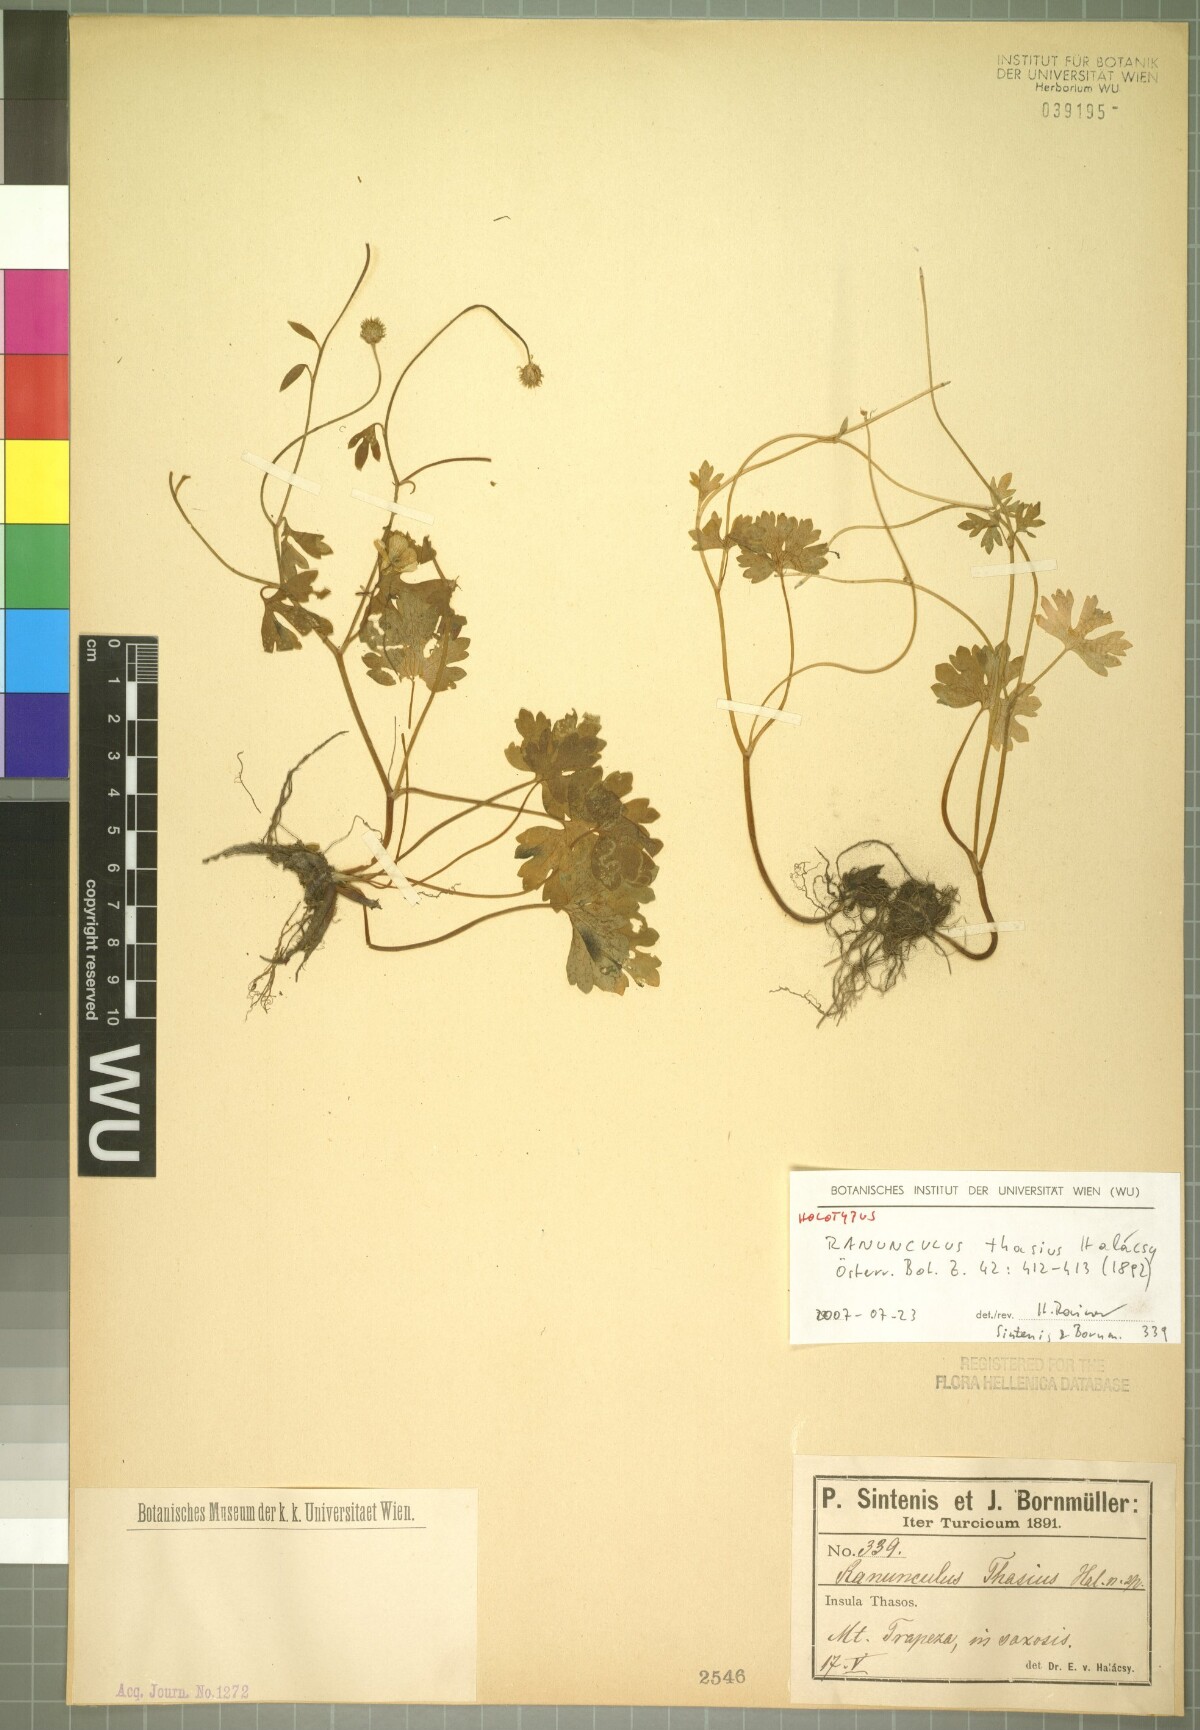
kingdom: Plantae
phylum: Tracheophyta
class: Magnoliopsida
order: Ranunculales
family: Ranunculaceae
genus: Ranunculus
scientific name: Ranunculus thasius
